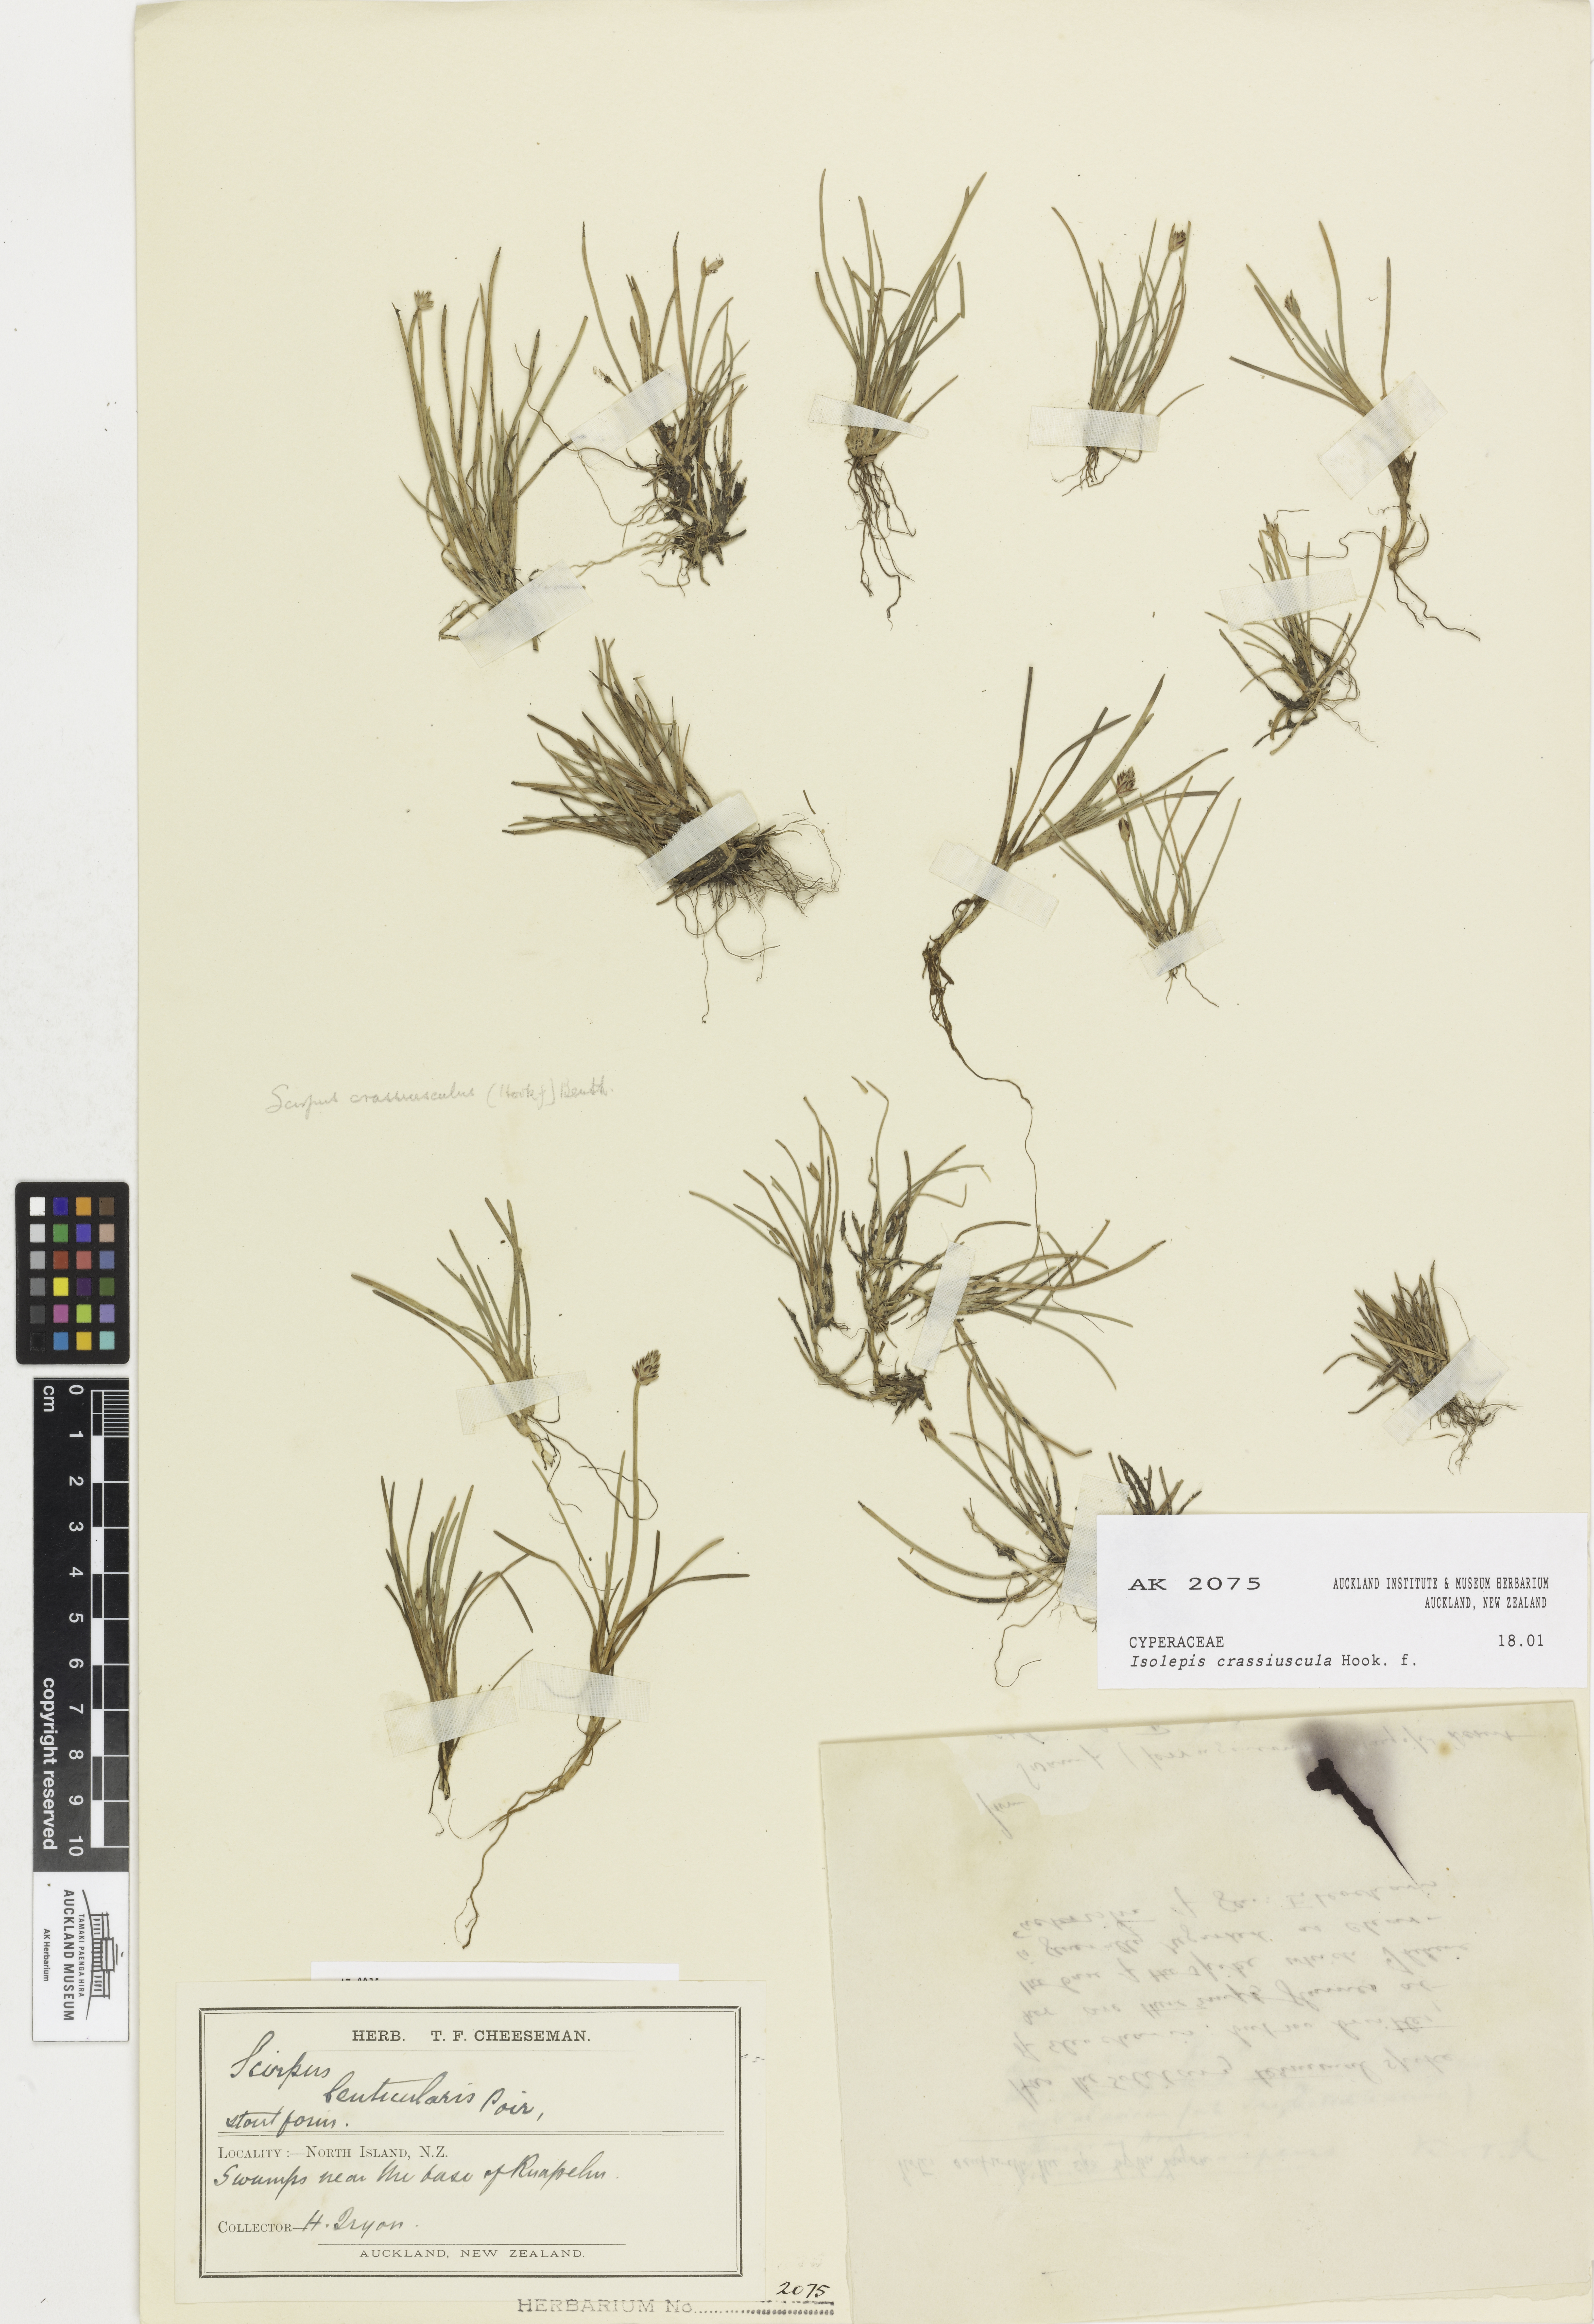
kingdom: Plantae
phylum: Tracheophyta
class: Liliopsida
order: Poales
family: Cyperaceae
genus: Isolepis
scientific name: Isolepis crassiuscula
